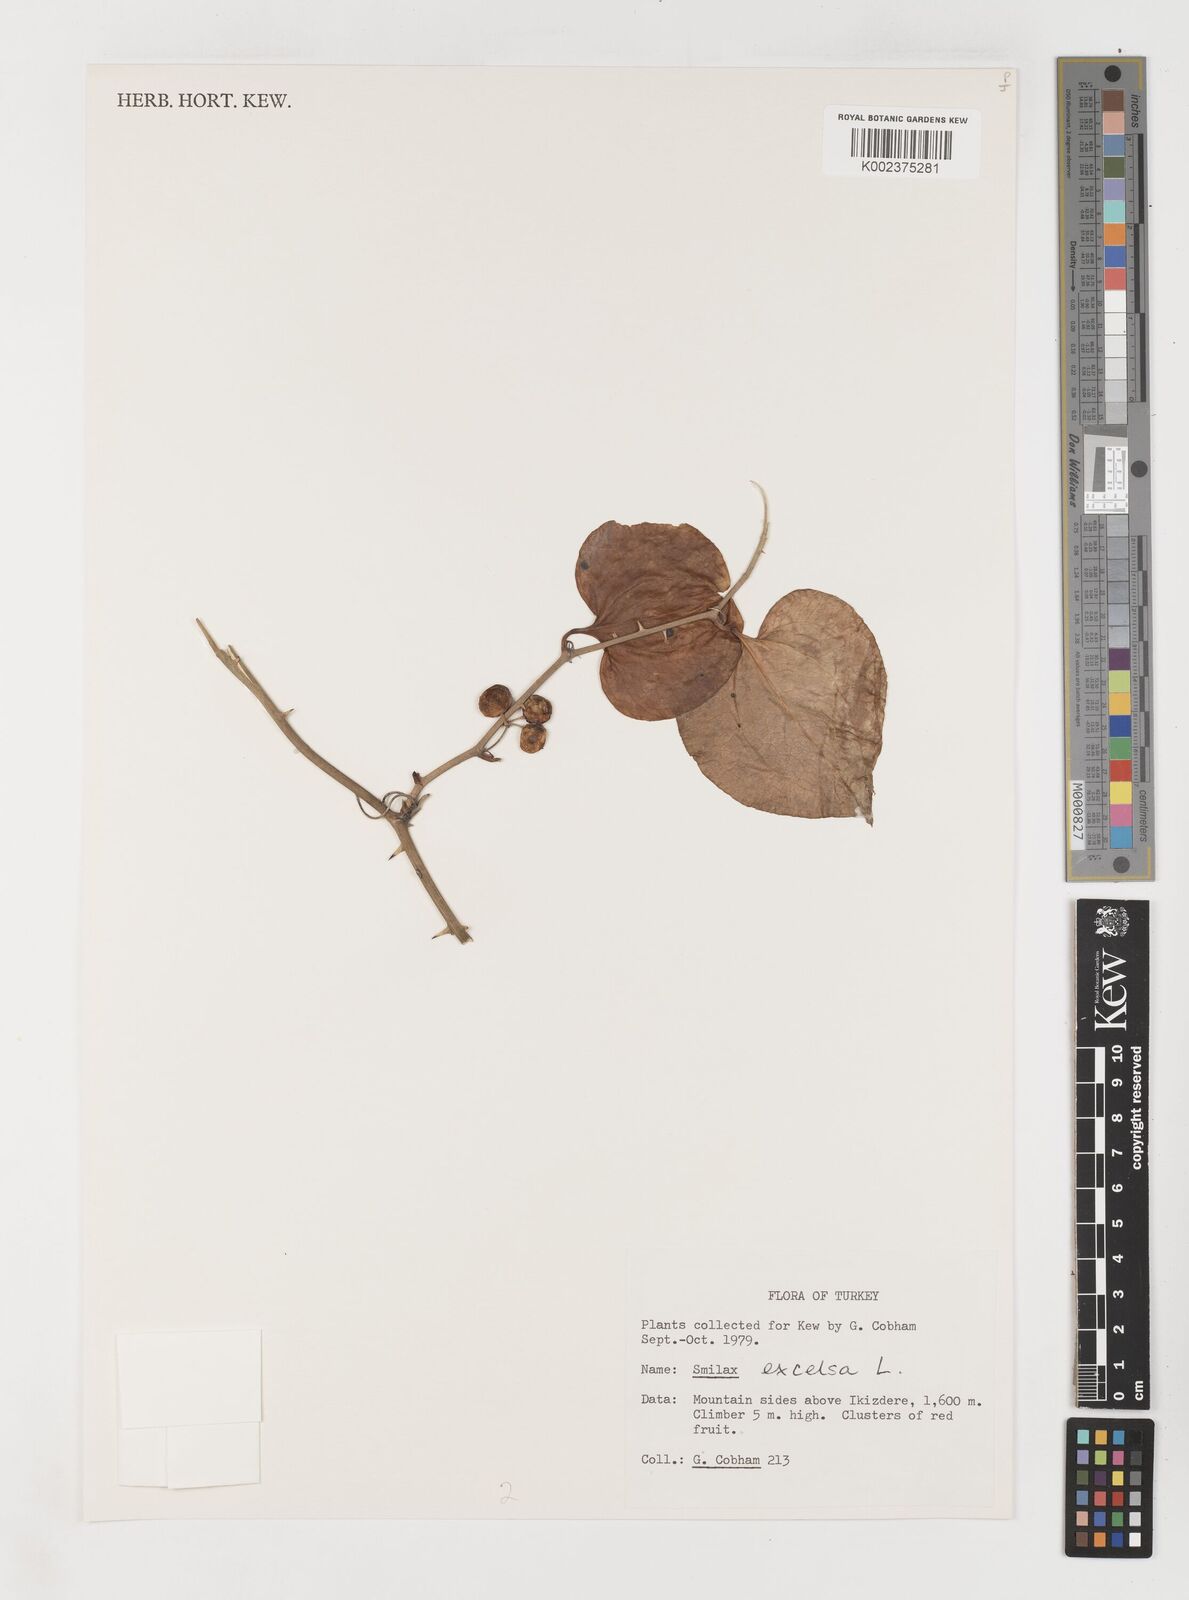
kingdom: Plantae
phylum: Tracheophyta
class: Liliopsida
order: Liliales
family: Smilacaceae
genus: Smilax
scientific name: Smilax excelsa
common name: Larger smilax
